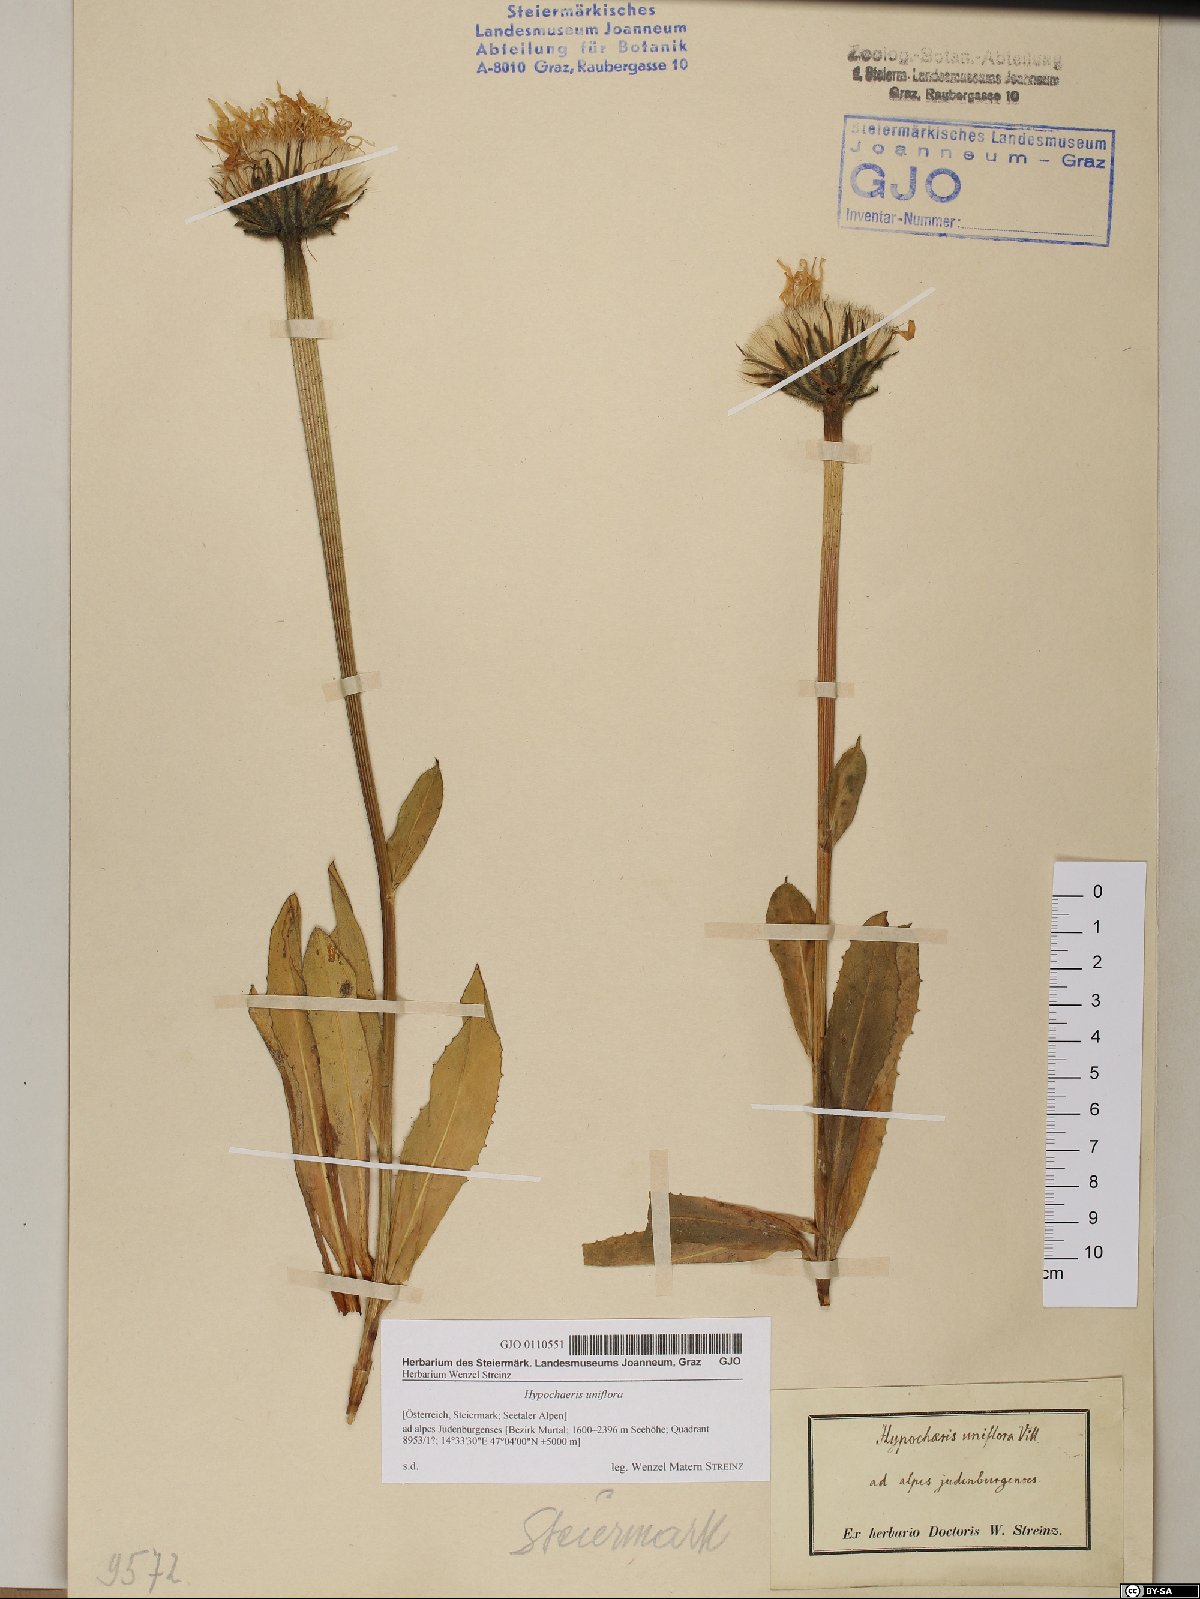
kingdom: Plantae
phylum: Tracheophyta
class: Magnoliopsida
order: Asterales
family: Asteraceae
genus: Trommsdorffia
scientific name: Trommsdorffia uniflora
